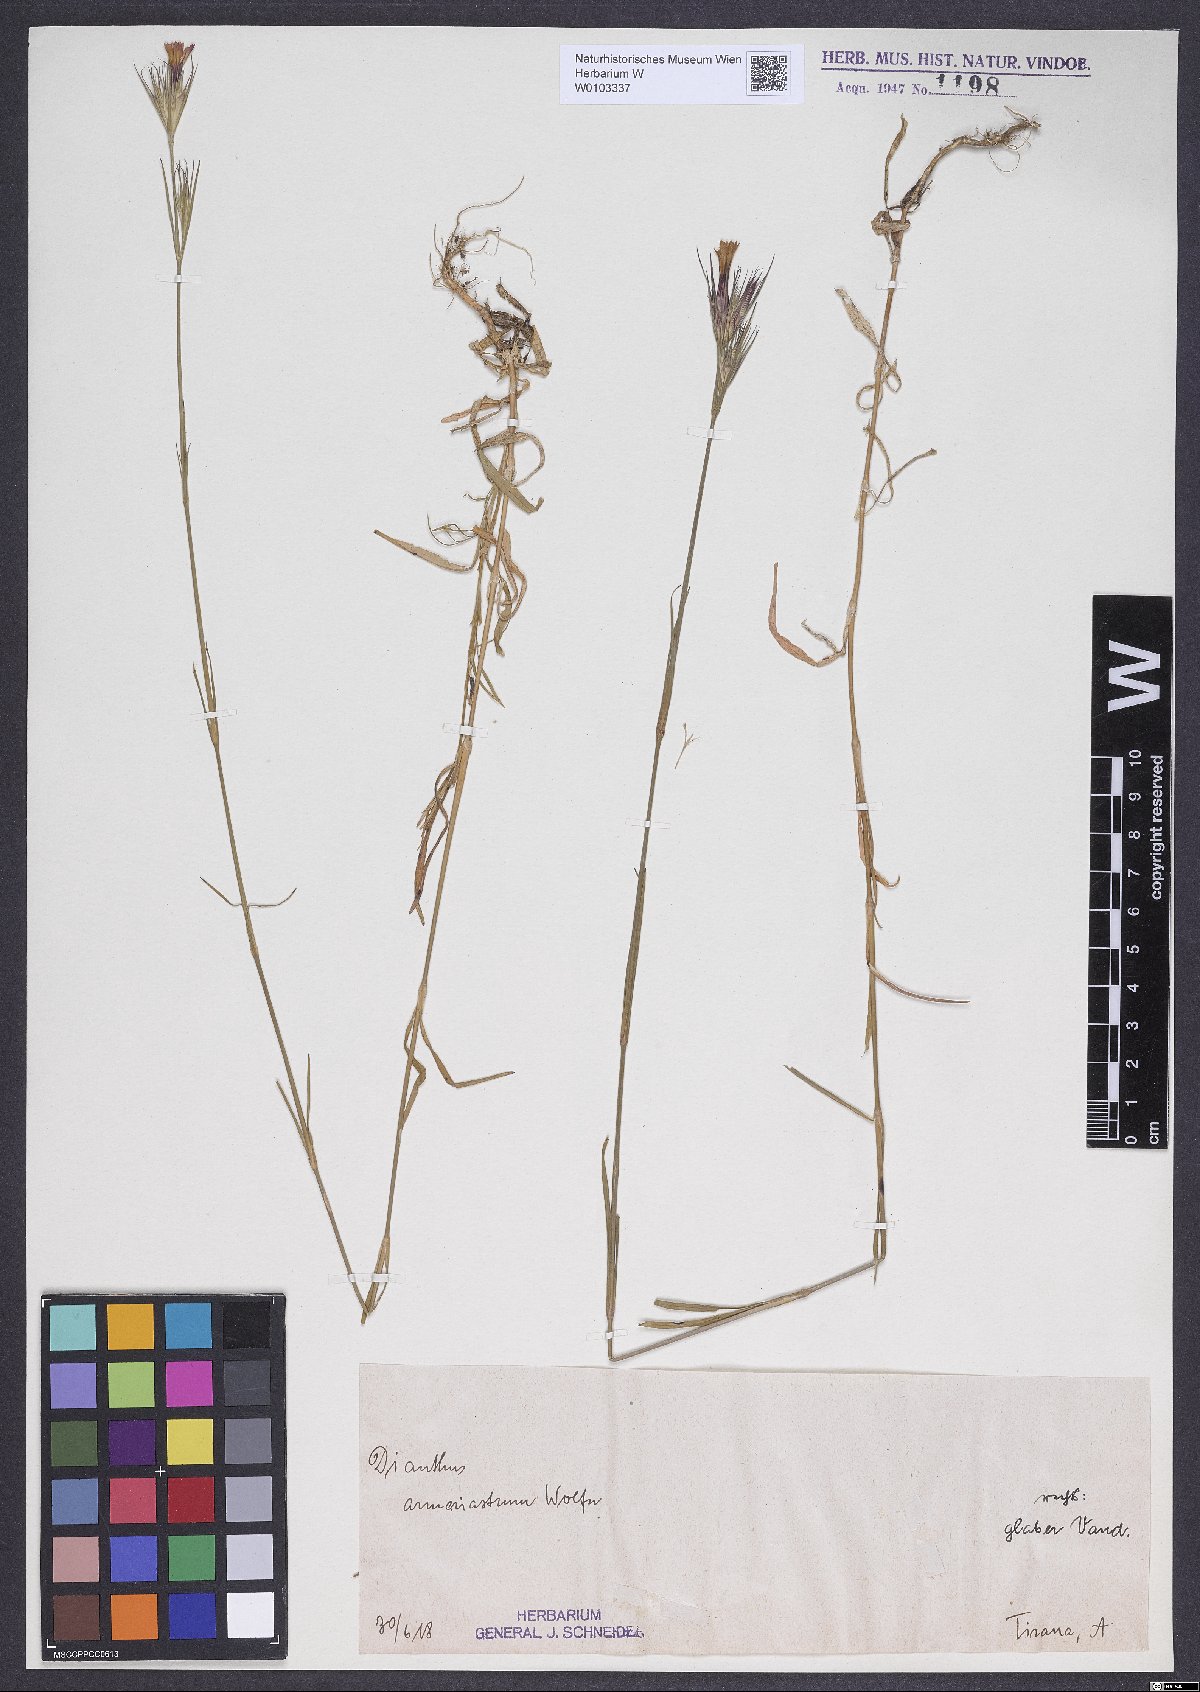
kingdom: Plantae
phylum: Tracheophyta
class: Magnoliopsida
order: Caryophyllales
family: Caryophyllaceae
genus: Dianthus
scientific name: Dianthus armeria
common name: Deptford pink
